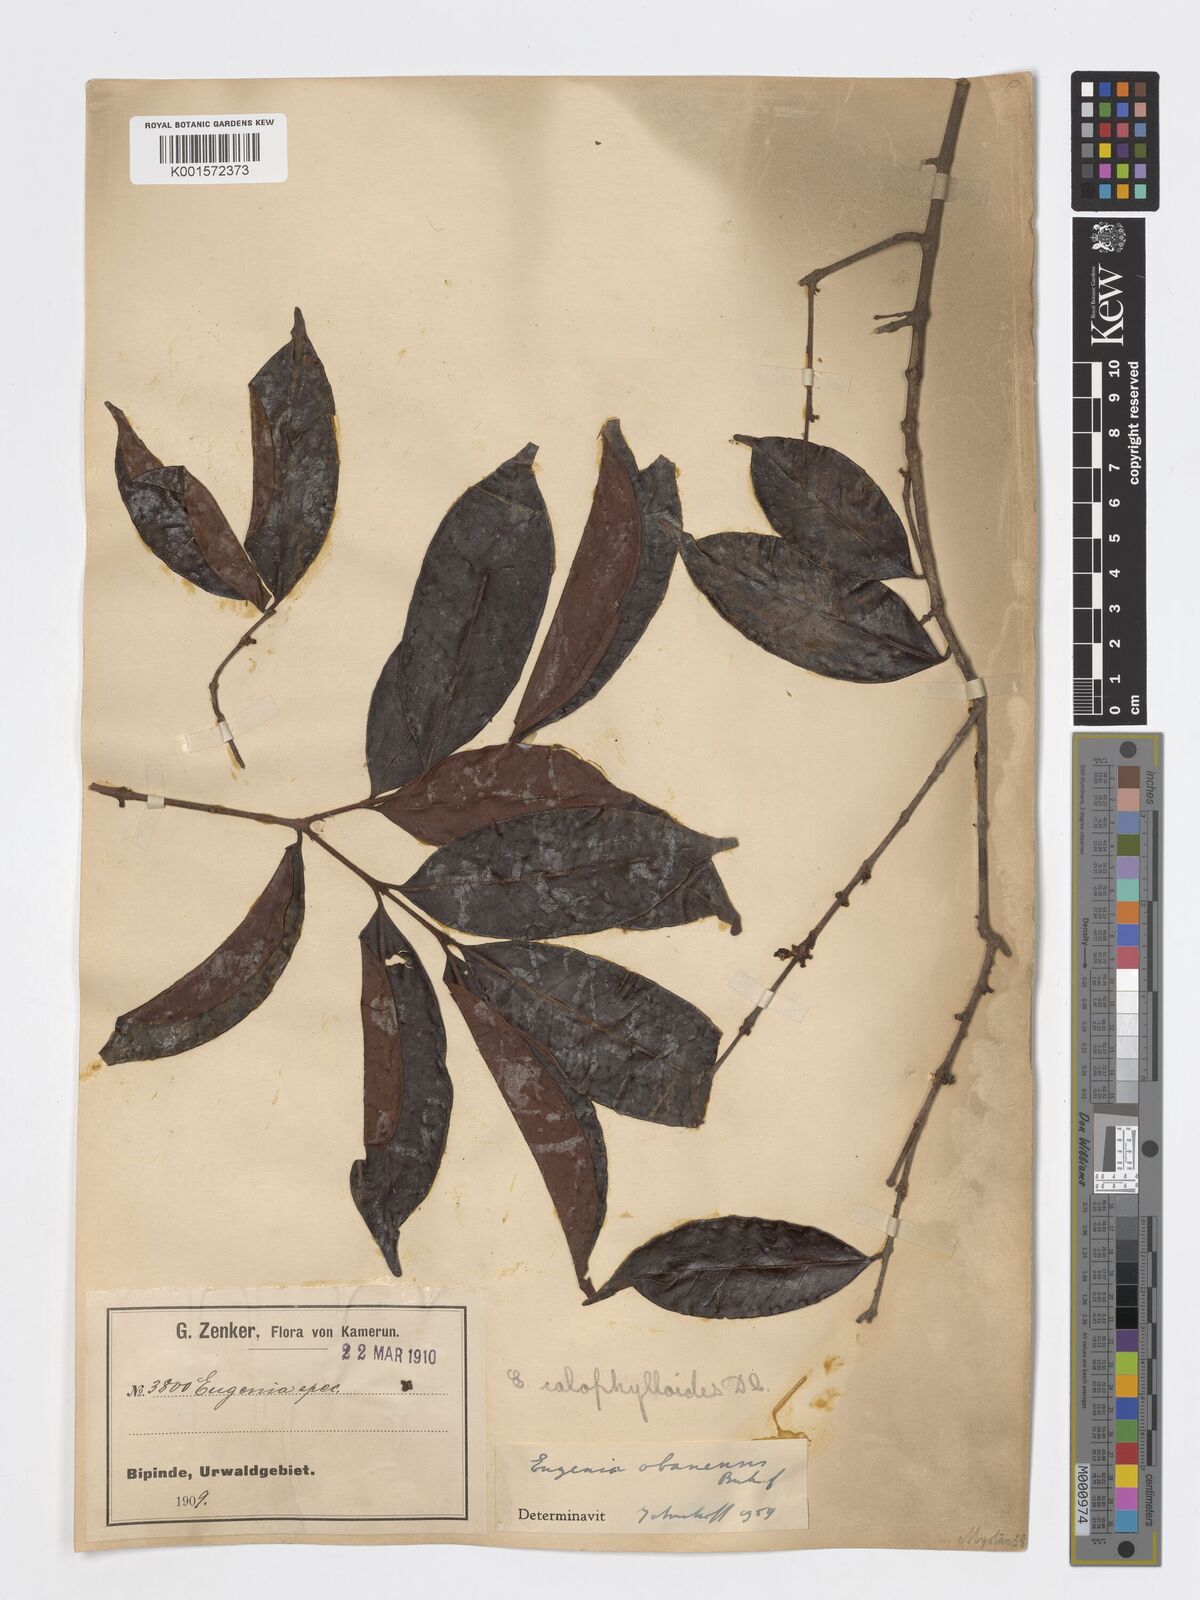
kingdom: Plantae
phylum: Tracheophyta
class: Magnoliopsida
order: Myrtales
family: Myrtaceae
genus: Eugenia
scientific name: Eugenia obanensis
